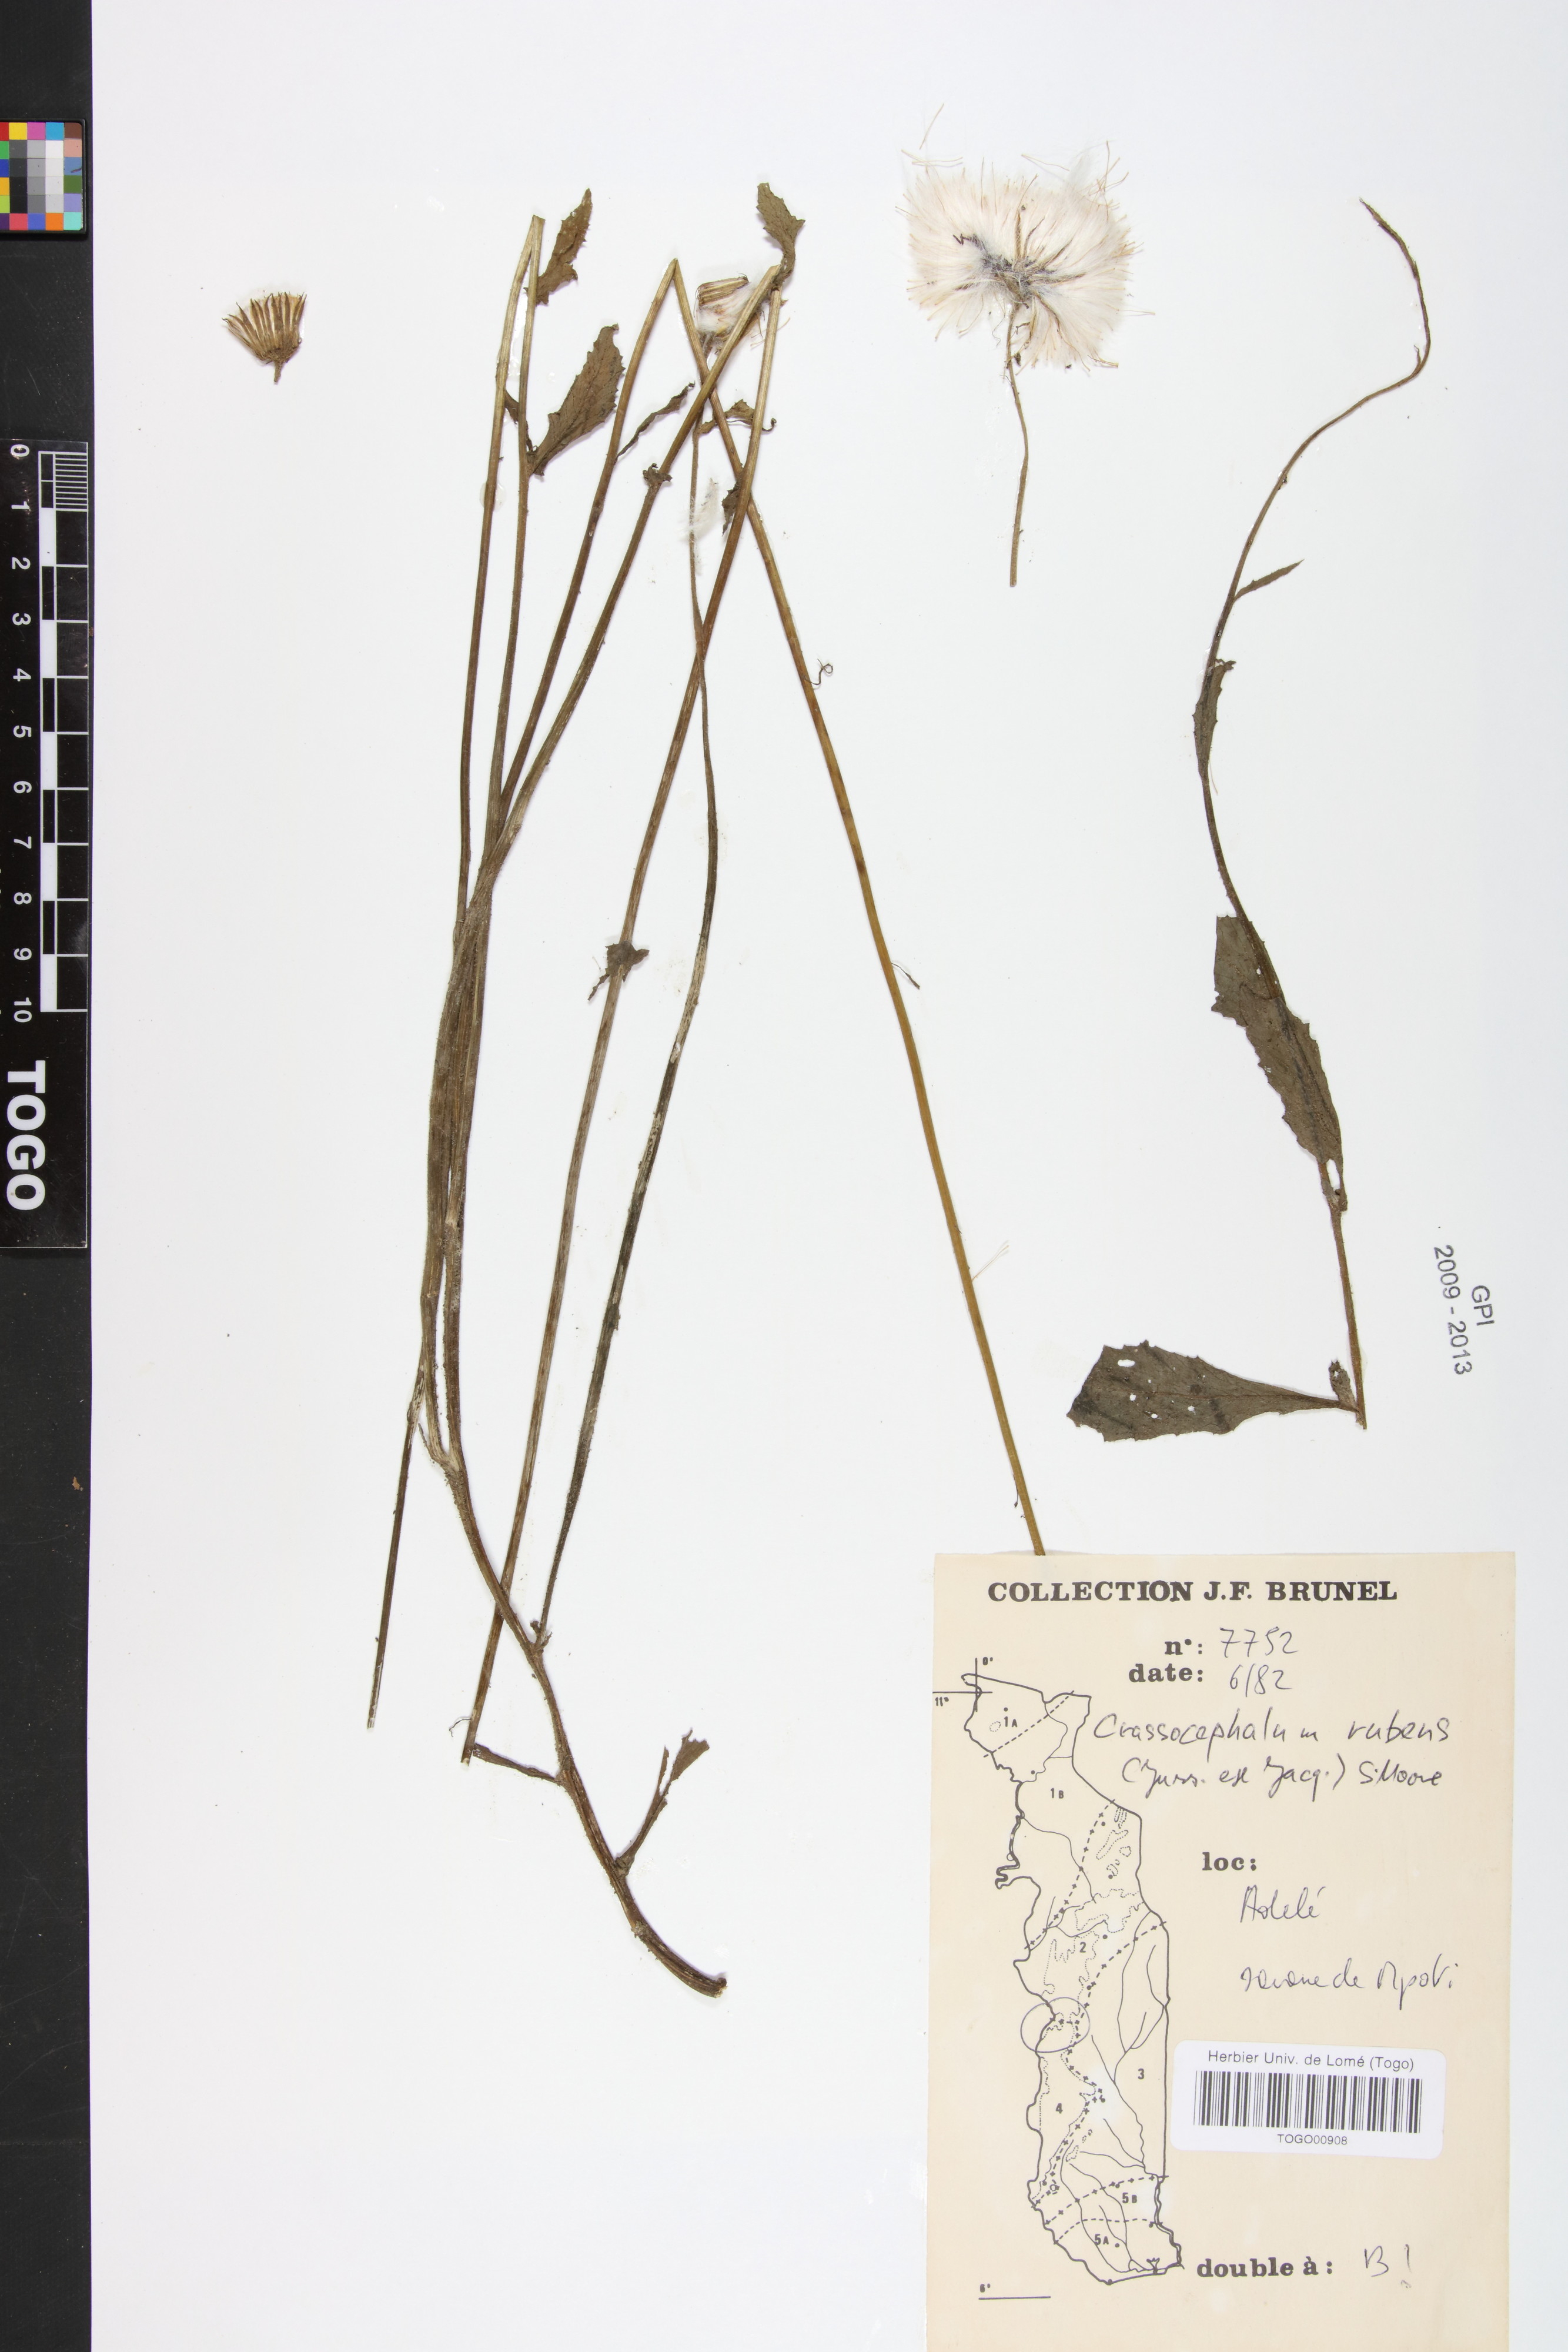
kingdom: Plantae
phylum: Tracheophyta
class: Magnoliopsida
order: Asterales
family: Asteraceae
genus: Crassocephalum
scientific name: Crassocephalum rubens
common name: Yoruban bologi
